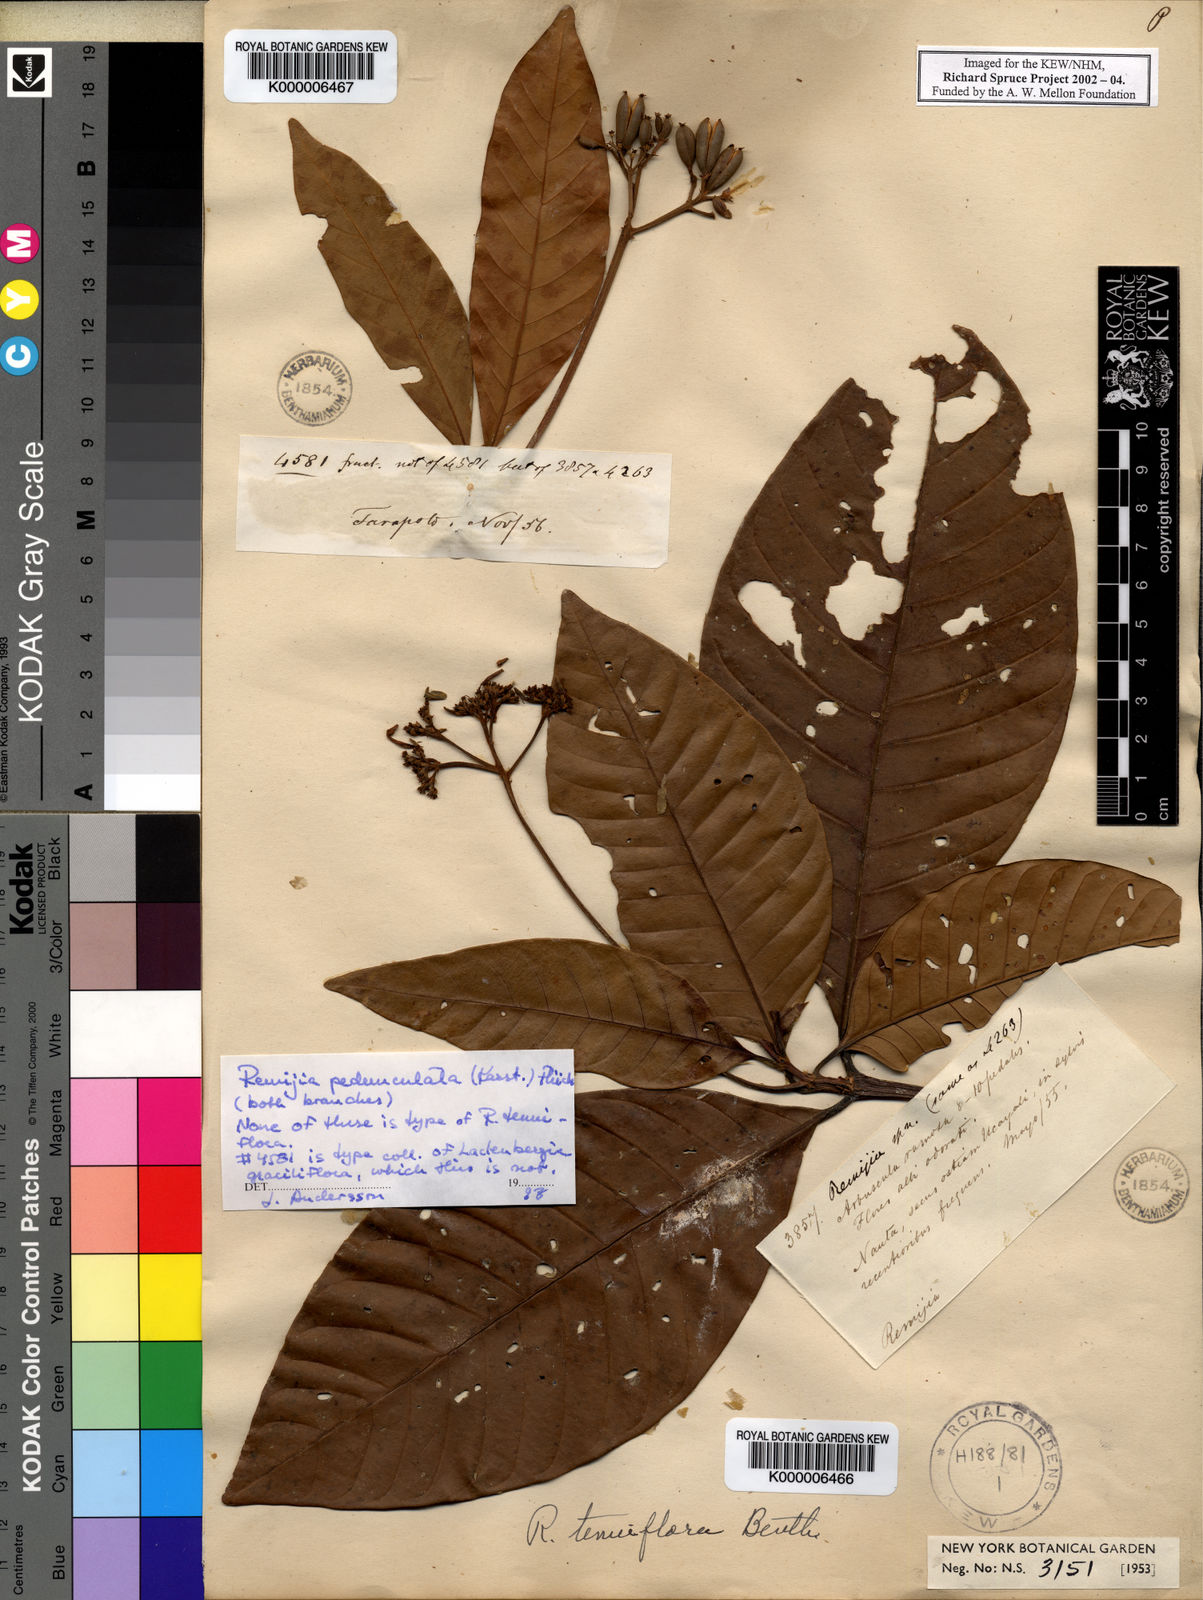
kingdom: Plantae
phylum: Tracheophyta
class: Magnoliopsida
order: Gentianales
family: Rubiaceae
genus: Ciliosemina
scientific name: Ciliosemina pedunculata
